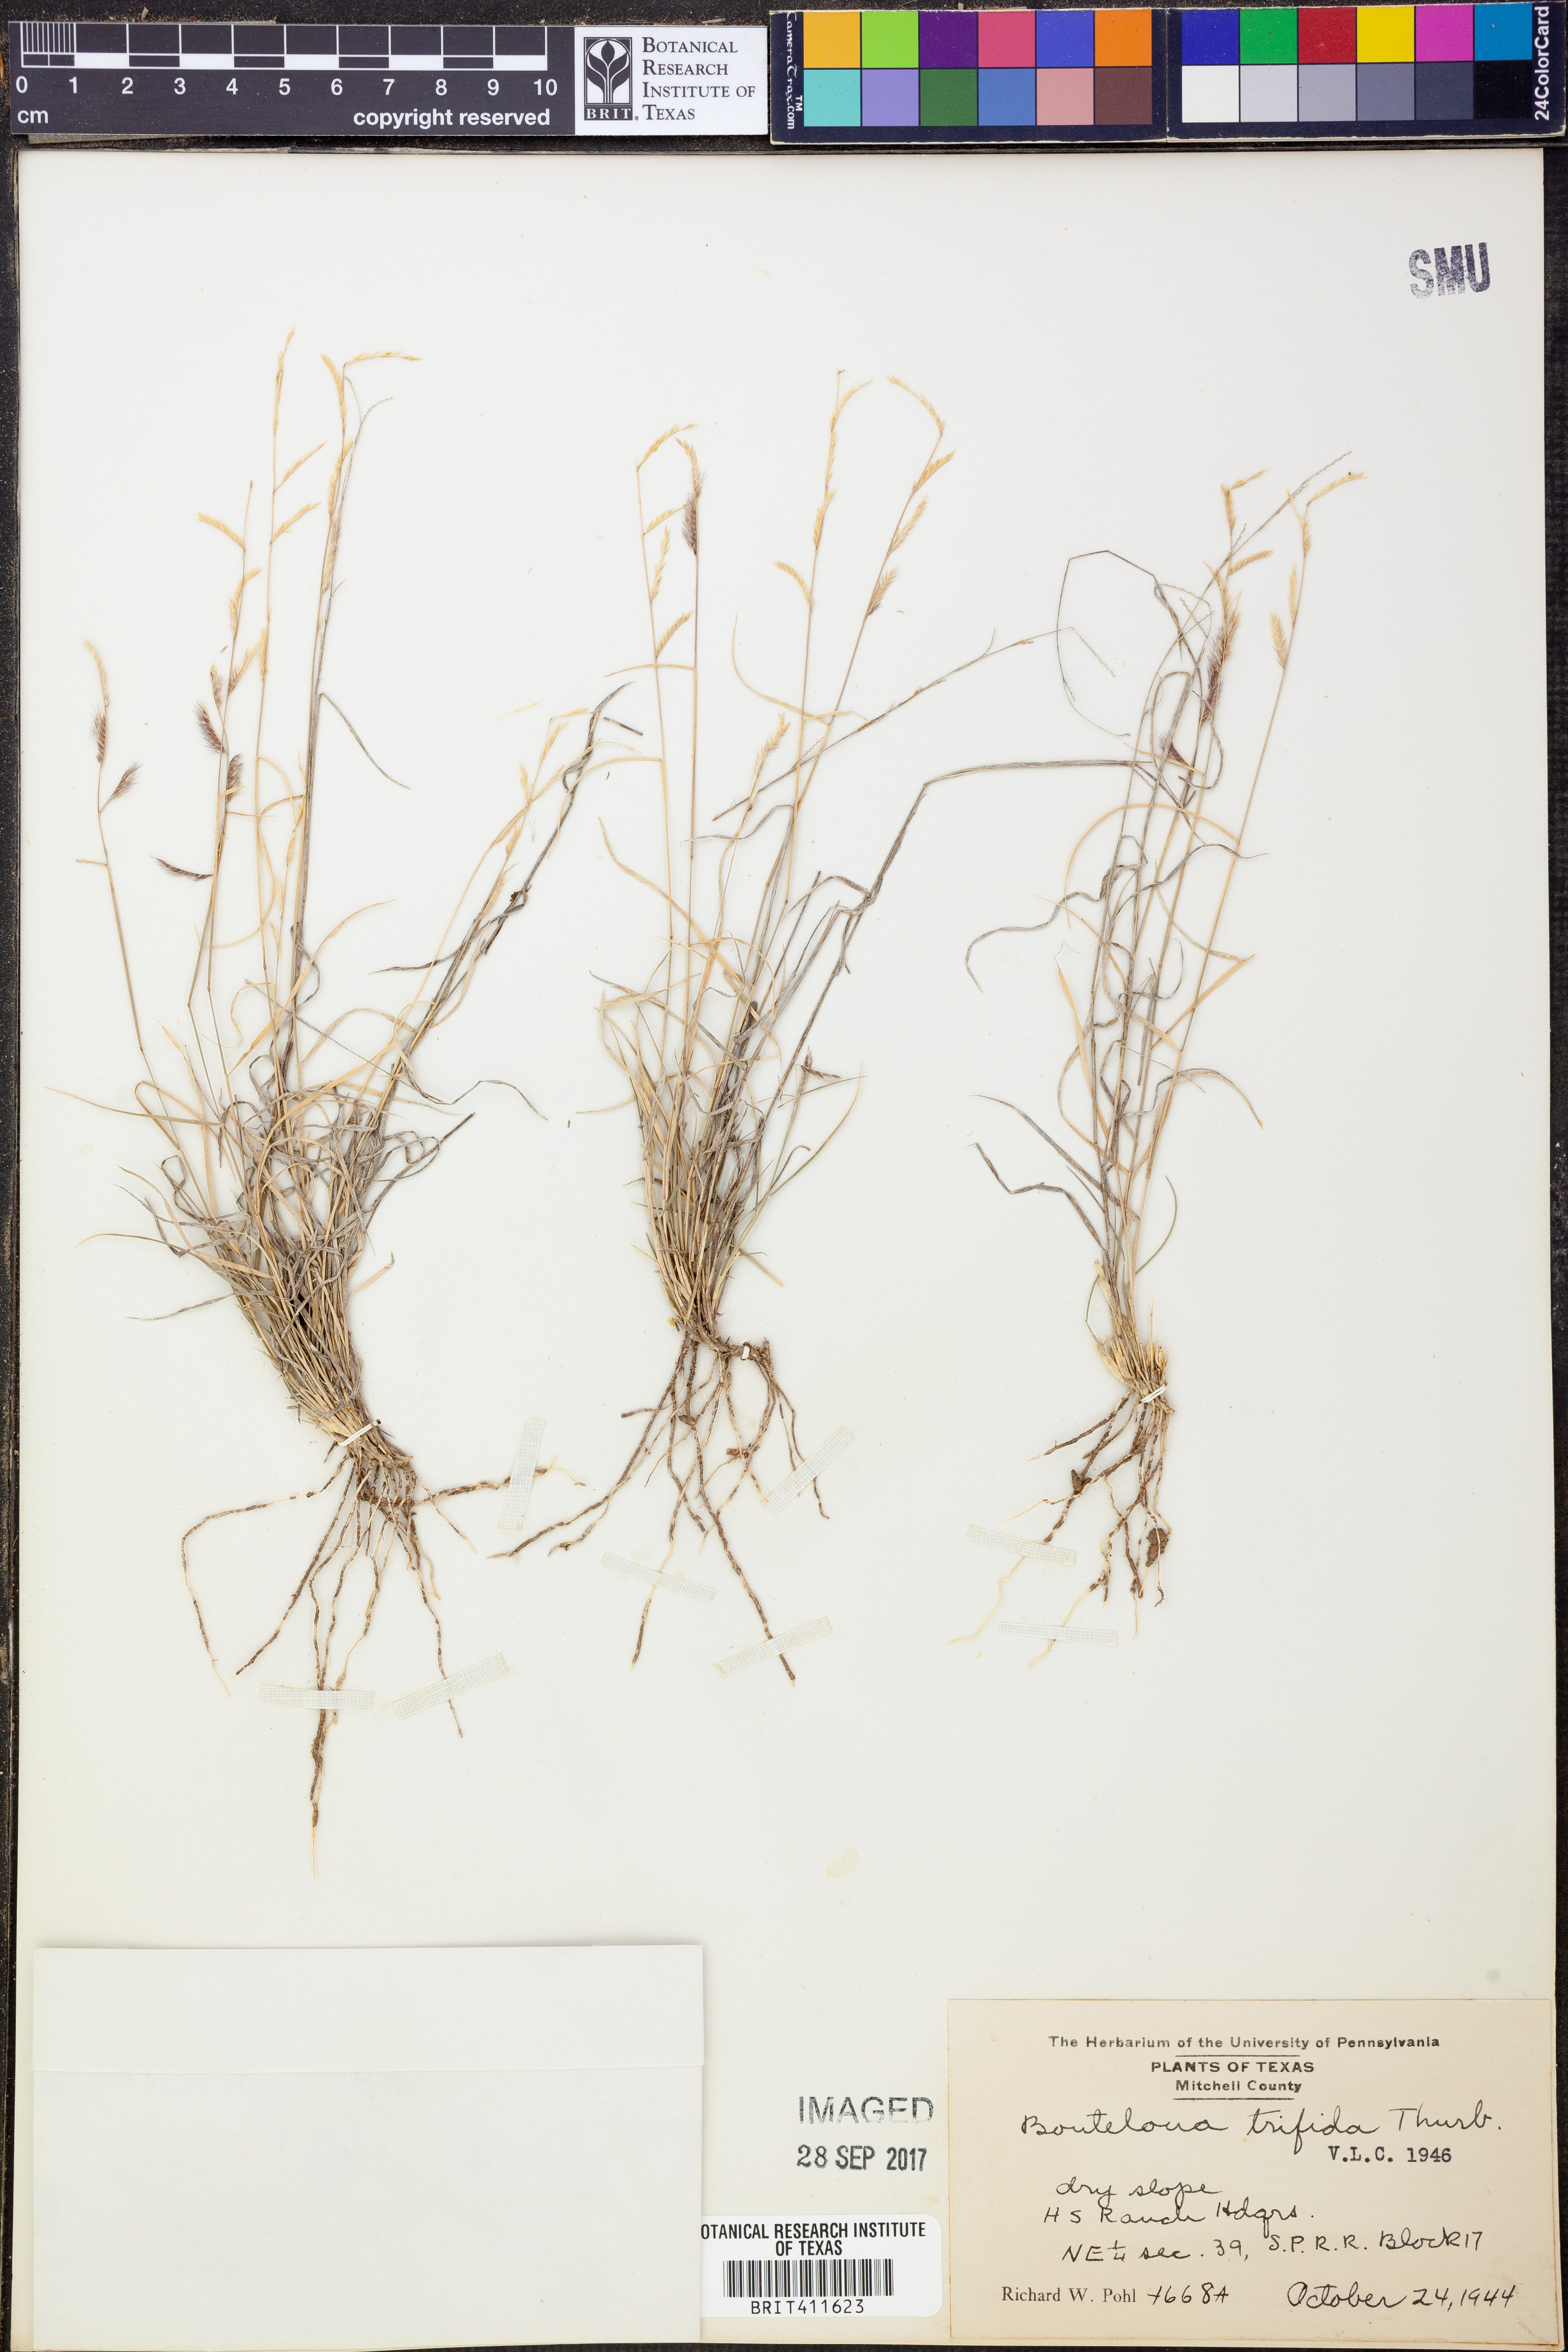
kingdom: Plantae
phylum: Tracheophyta
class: Liliopsida
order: Poales
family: Poaceae
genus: Bouteloua
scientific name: Bouteloua trifida
